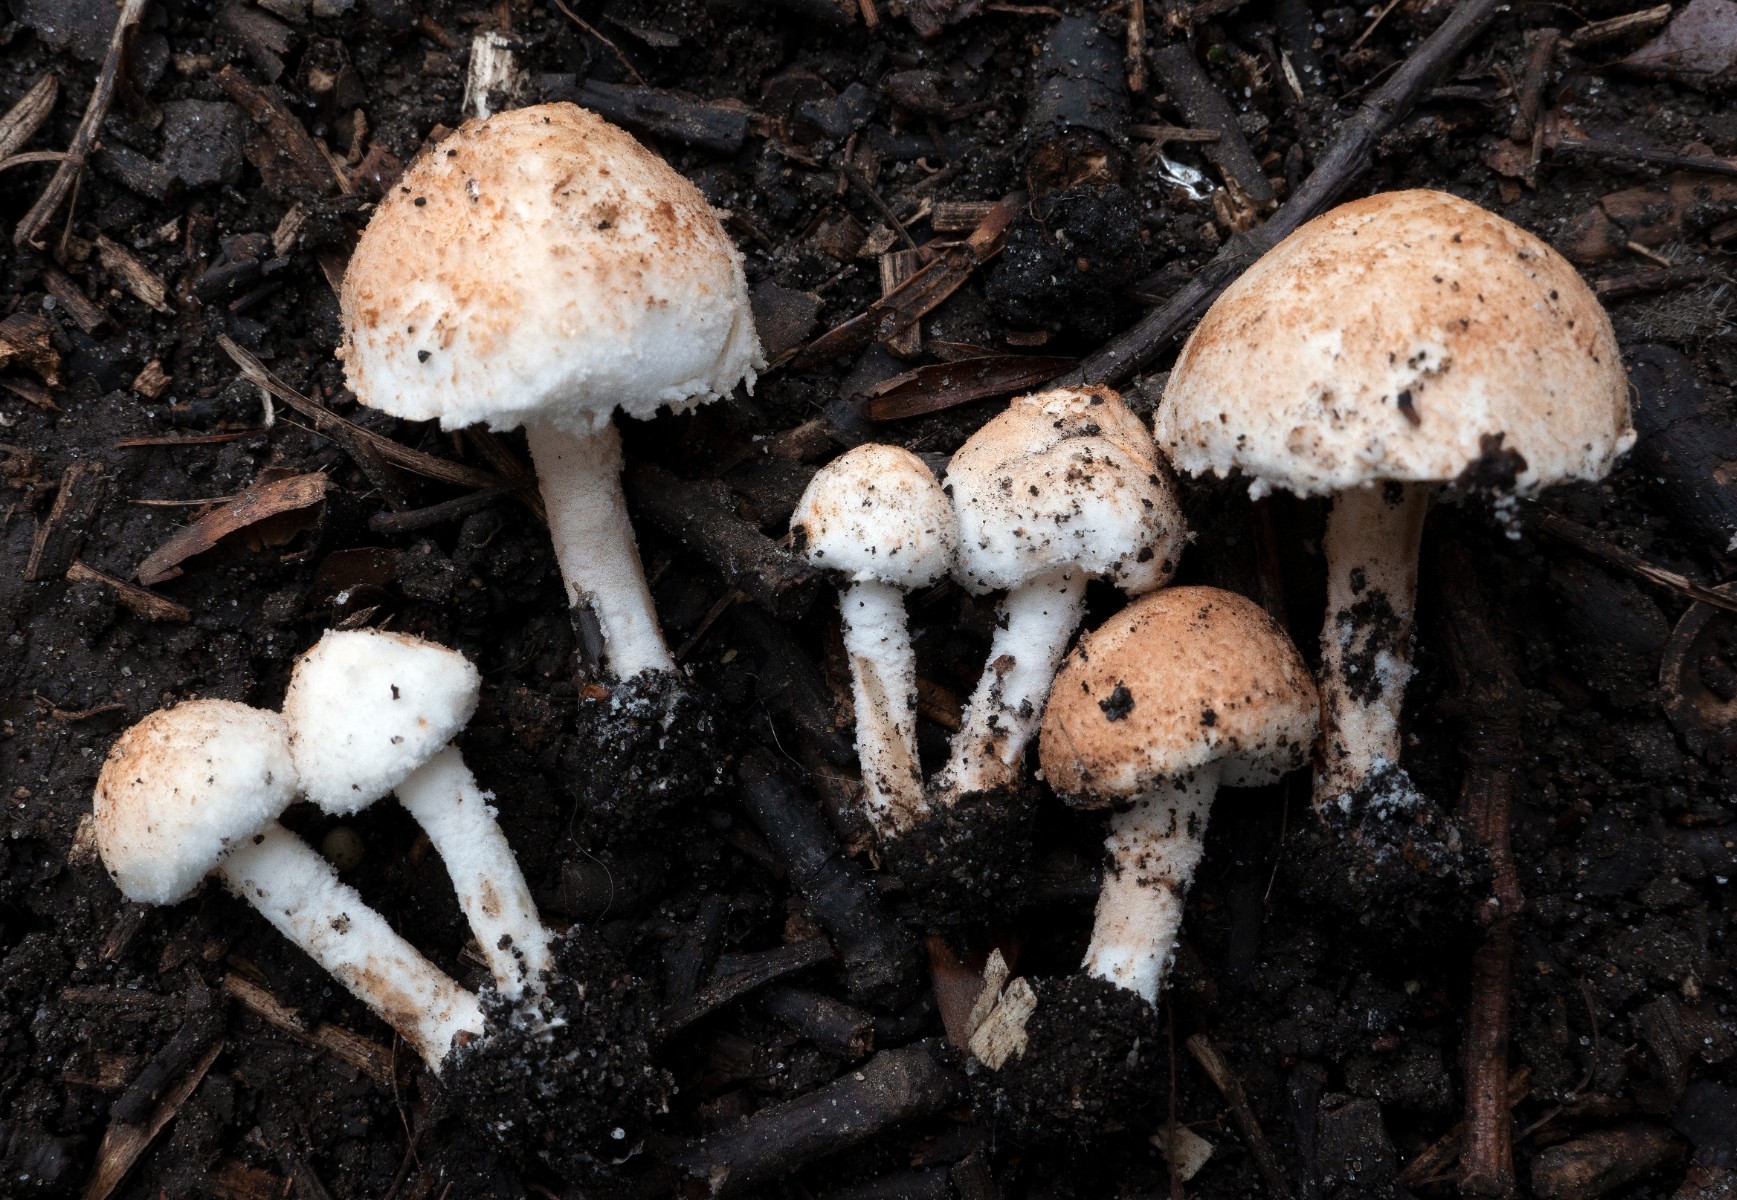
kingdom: Fungi
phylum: Basidiomycota
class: Agaricomycetes
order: Agaricales
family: Agaricaceae
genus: Cystolepiota
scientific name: Cystolepiota hetieri
